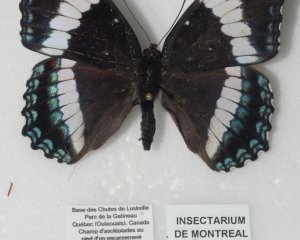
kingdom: Animalia
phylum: Arthropoda
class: Insecta
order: Lepidoptera
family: Nymphalidae
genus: Limenitis
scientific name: Limenitis arthemis
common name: Red-spotted Admiral
